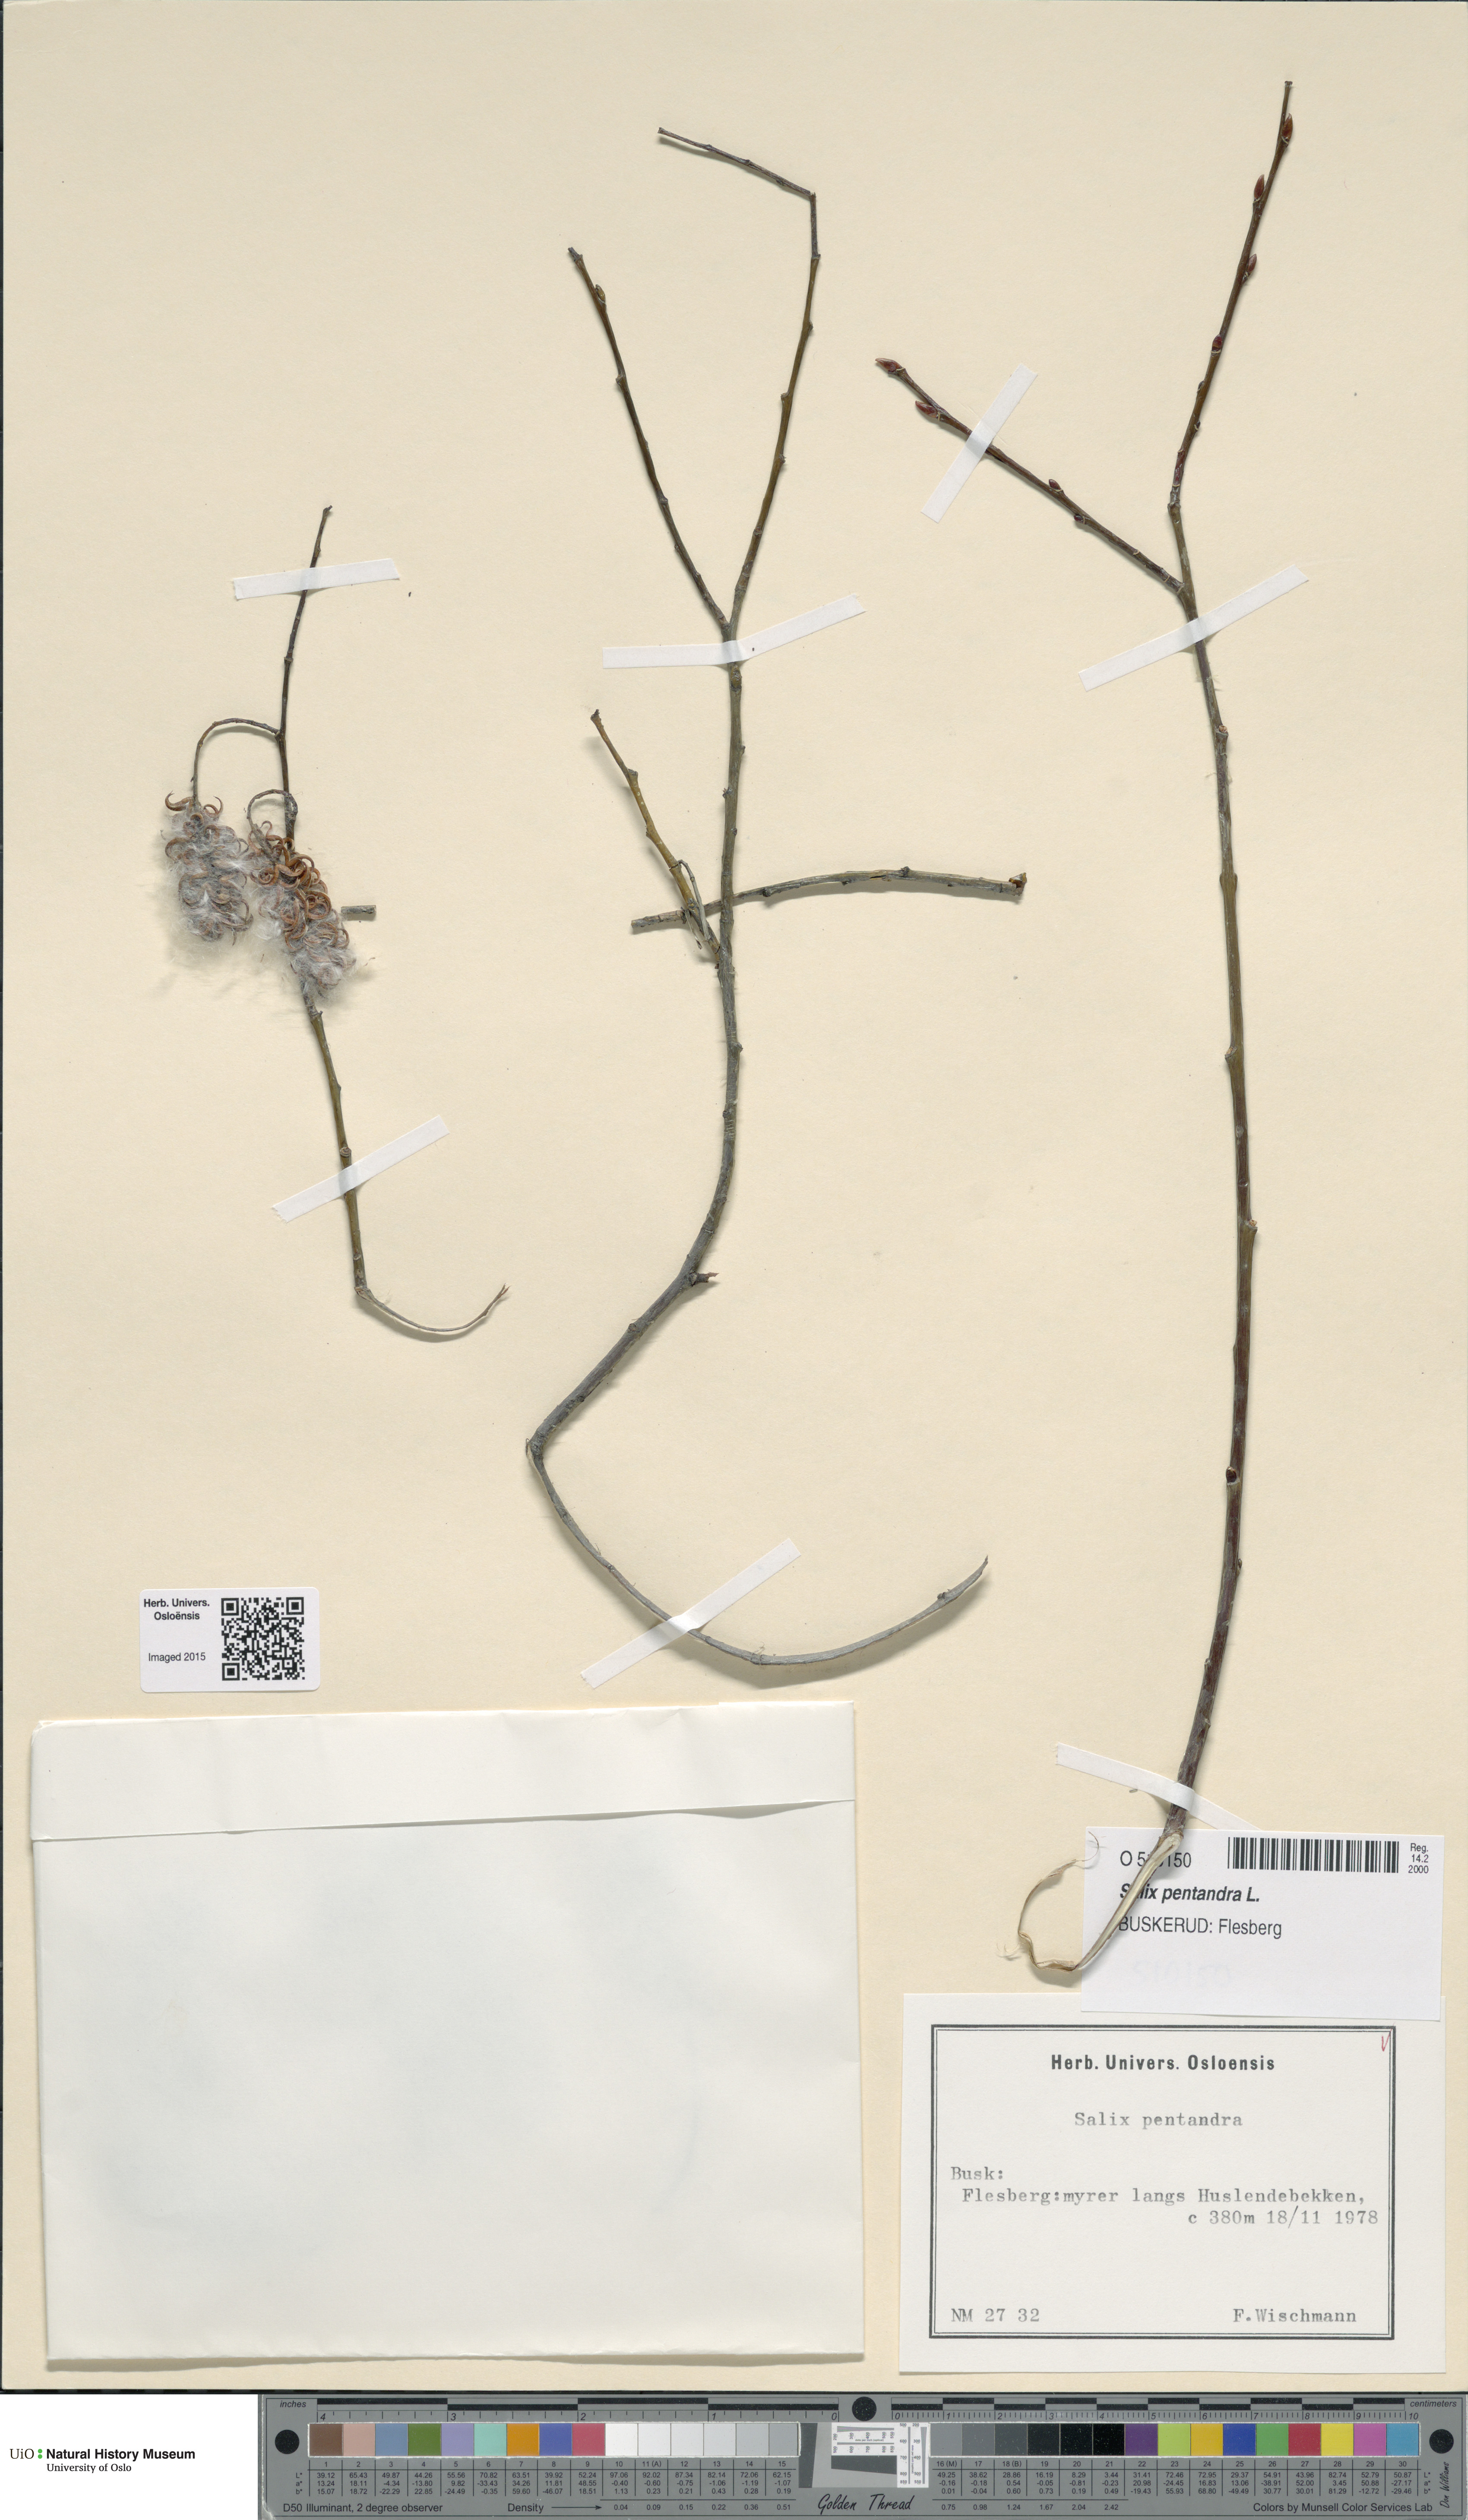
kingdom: Plantae
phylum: Tracheophyta
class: Magnoliopsida
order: Malpighiales
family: Salicaceae
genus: Salix
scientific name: Salix pentandra
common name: Bay willow
